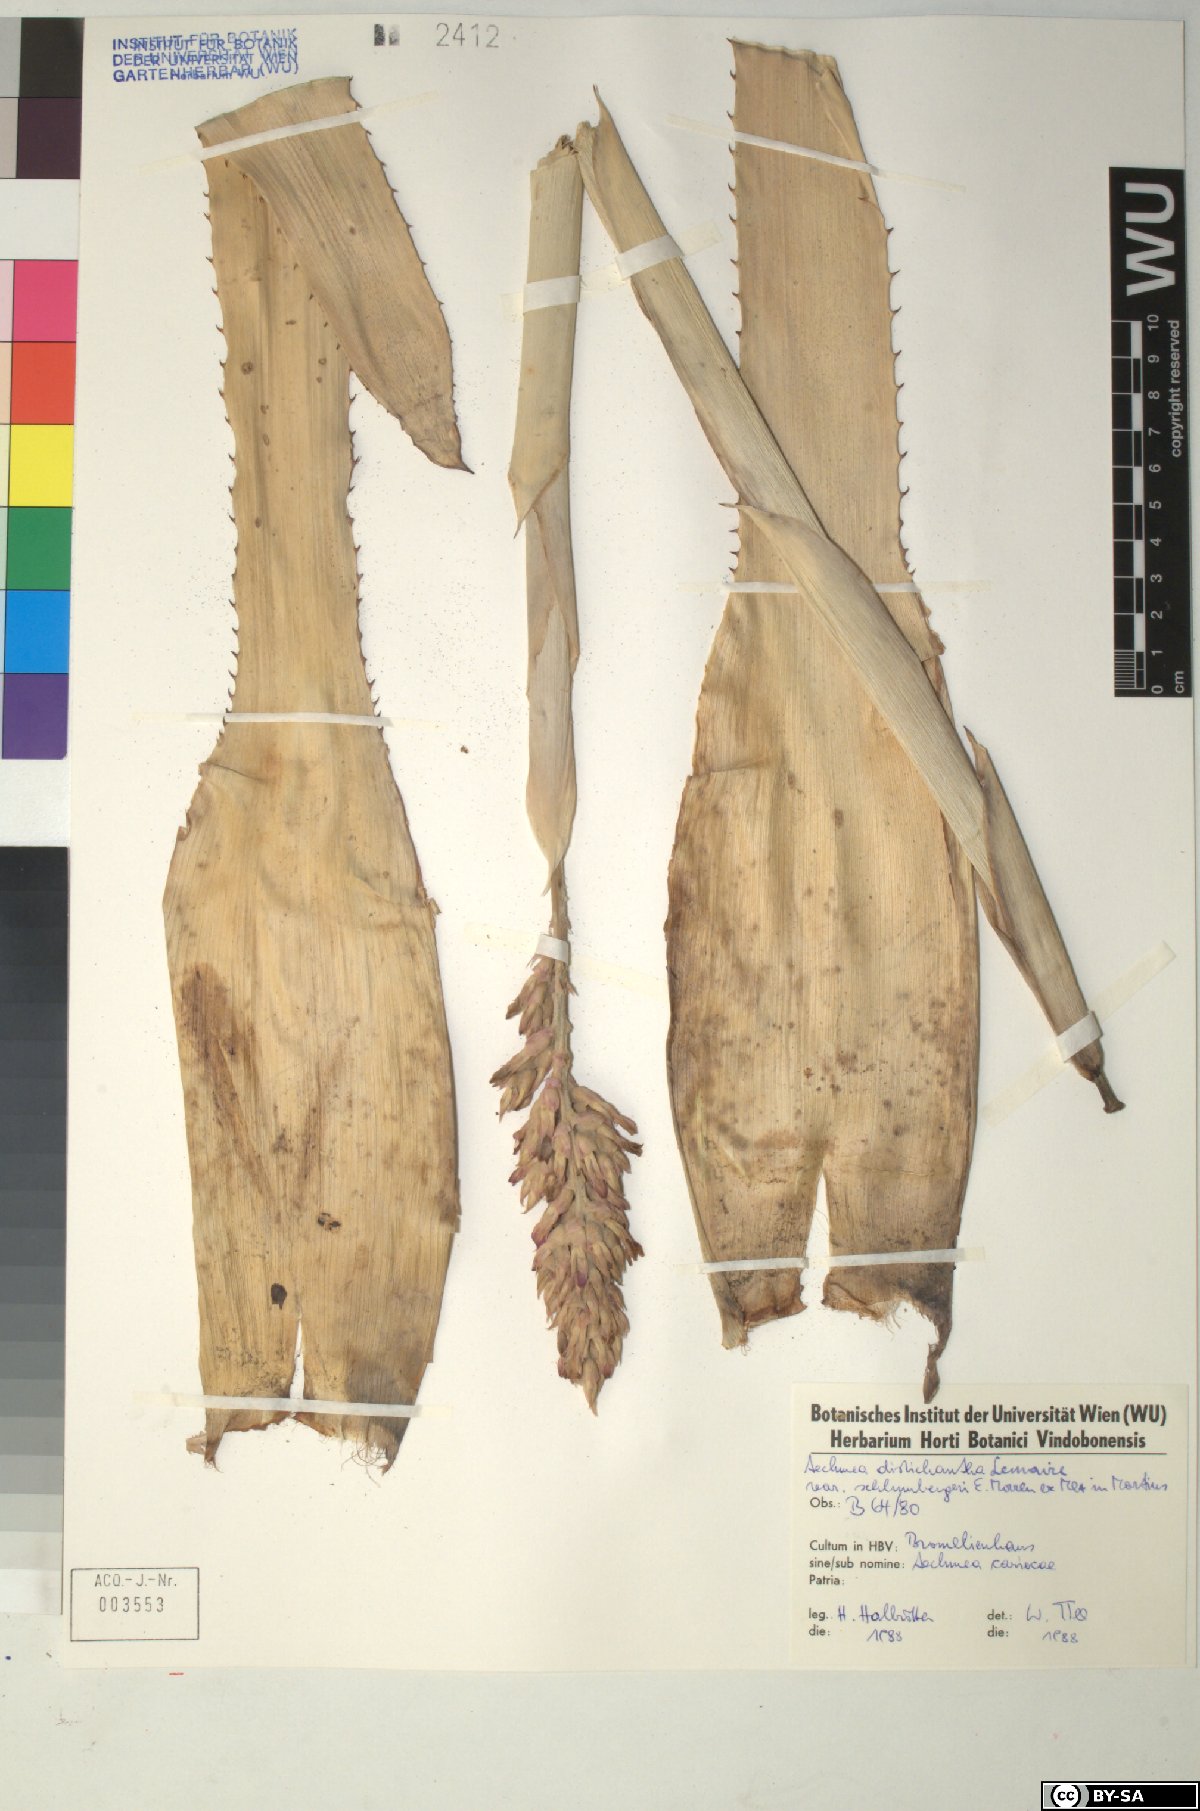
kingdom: Plantae
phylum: Tracheophyta
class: Liliopsida
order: Poales
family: Bromeliaceae
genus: Aechmea
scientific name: Aechmea distichantha
